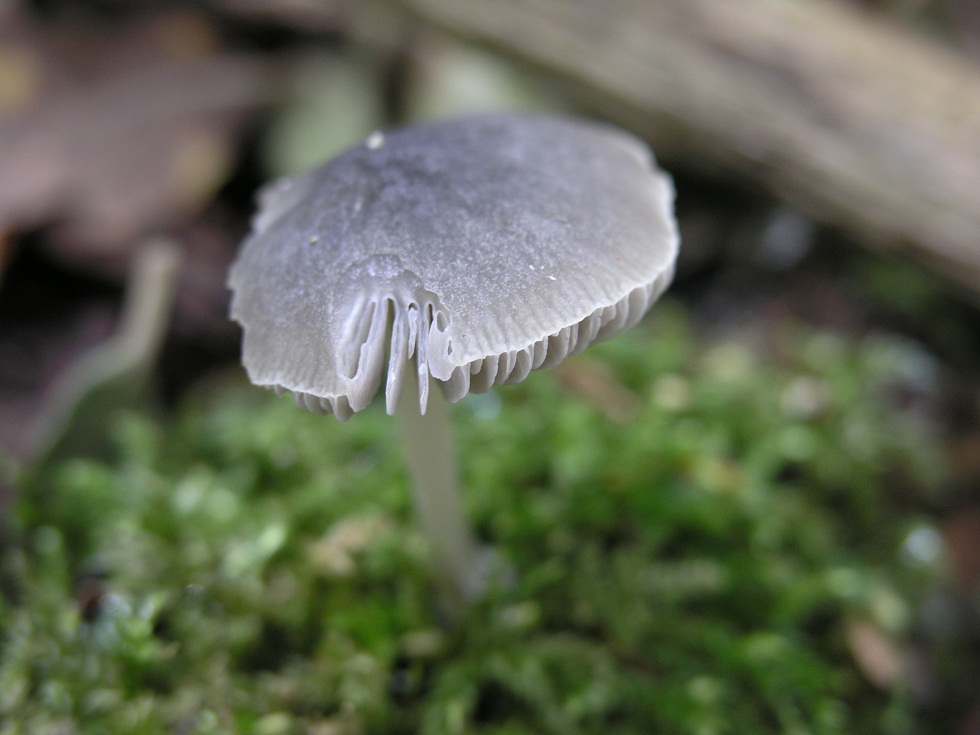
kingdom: Fungi
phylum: Basidiomycota
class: Agaricomycetes
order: Agaricales
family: Pluteaceae
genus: Pluteus
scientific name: Pluteus
